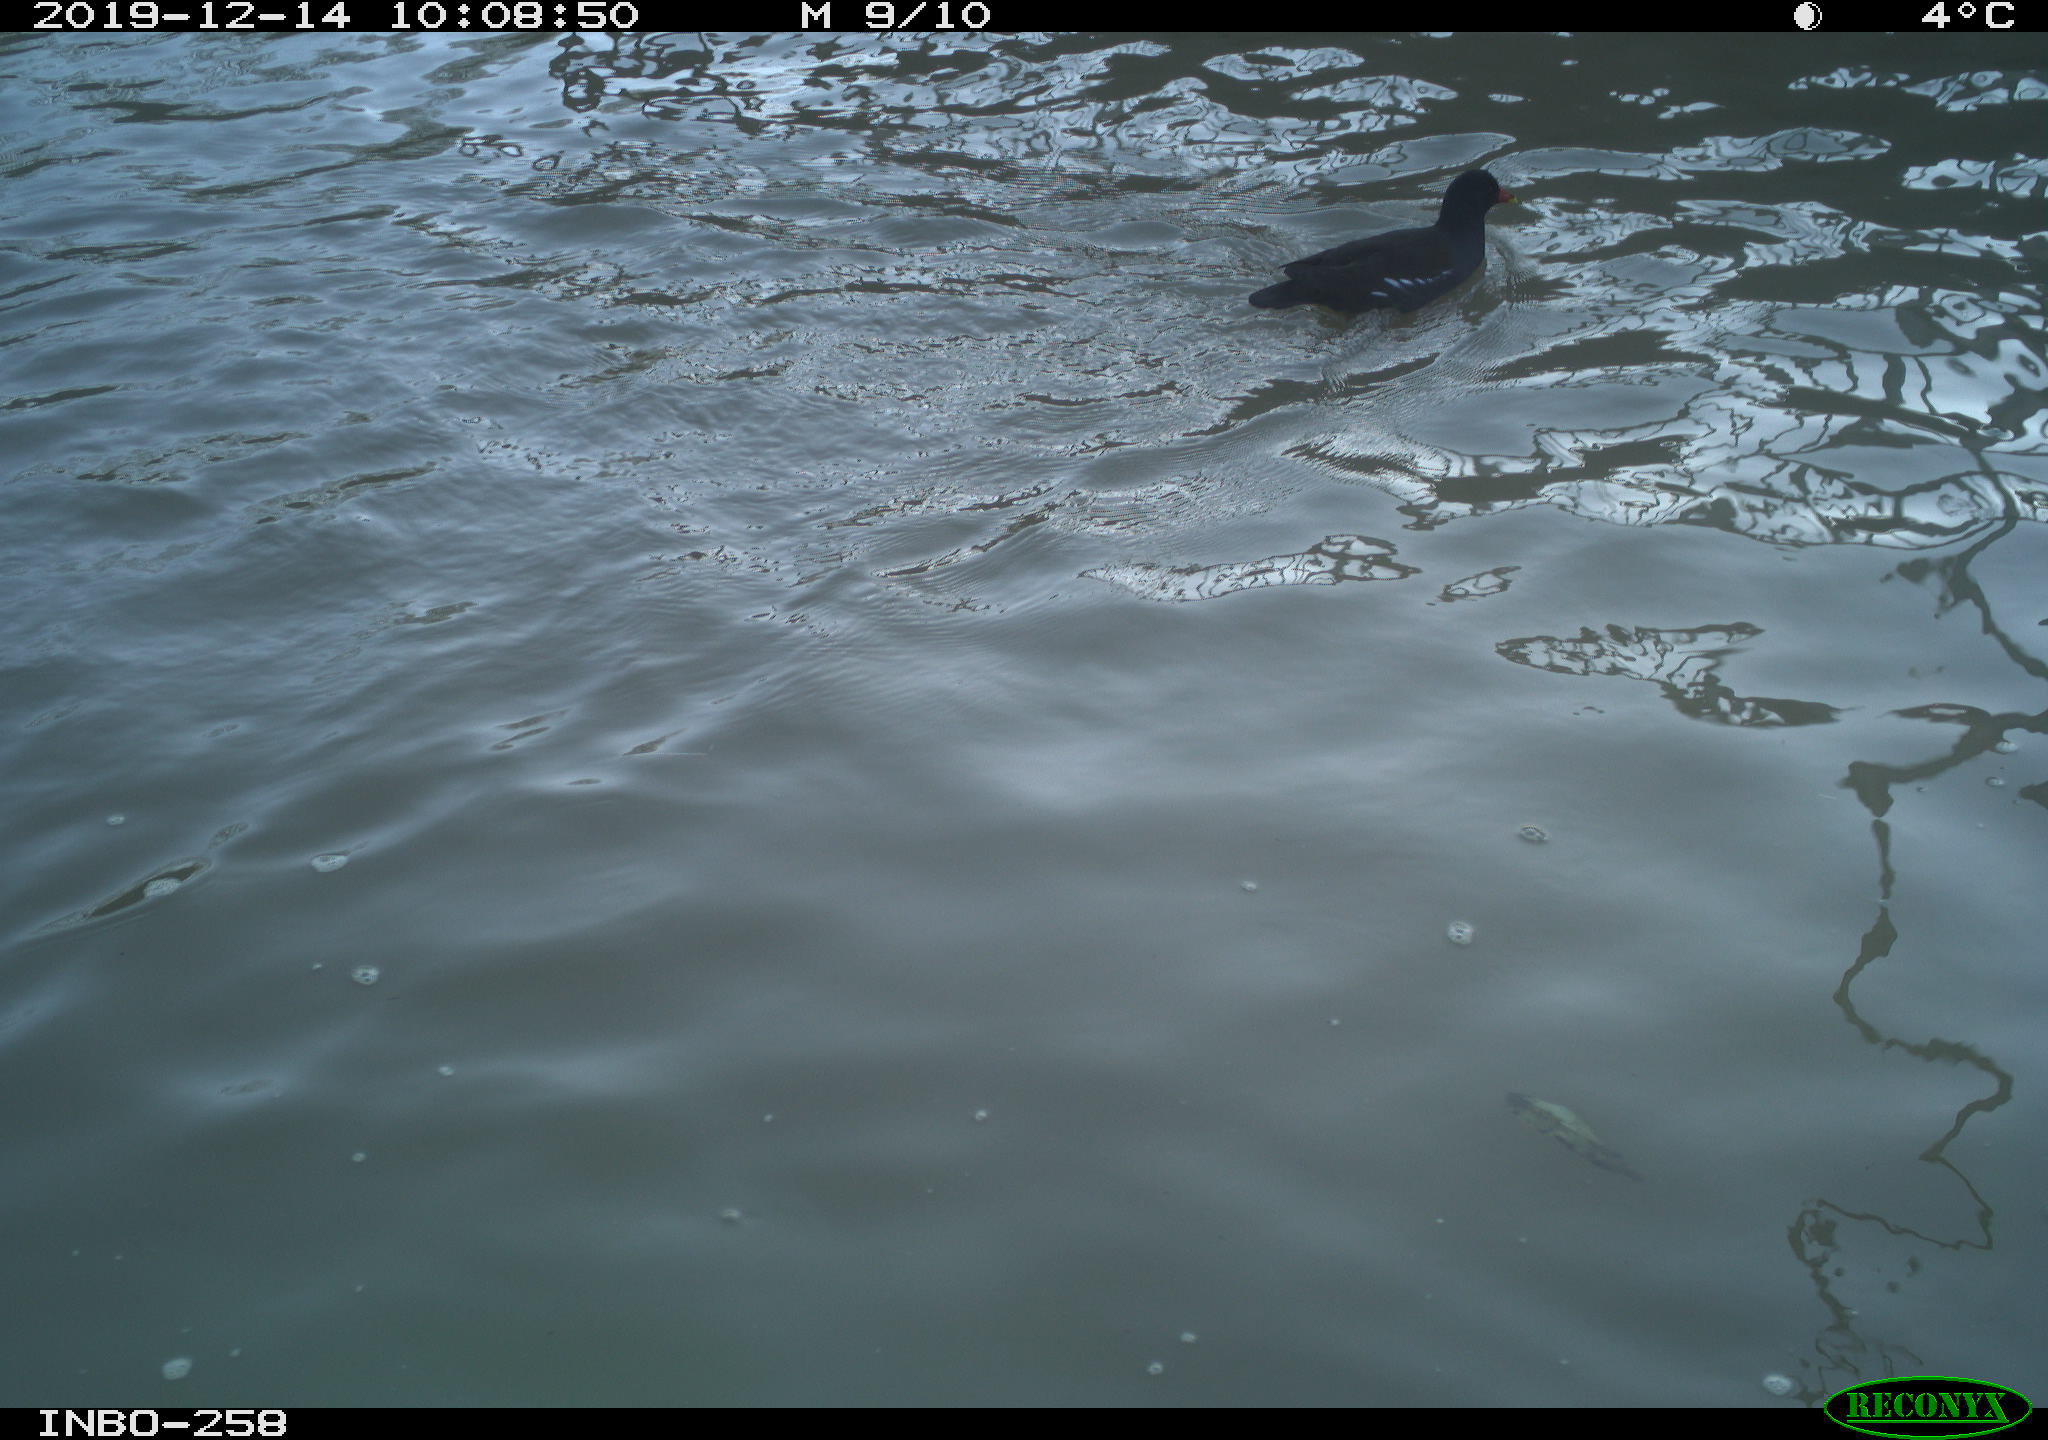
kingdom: Animalia
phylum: Chordata
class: Aves
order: Gruiformes
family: Rallidae
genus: Gallinula
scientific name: Gallinula chloropus
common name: Common moorhen
